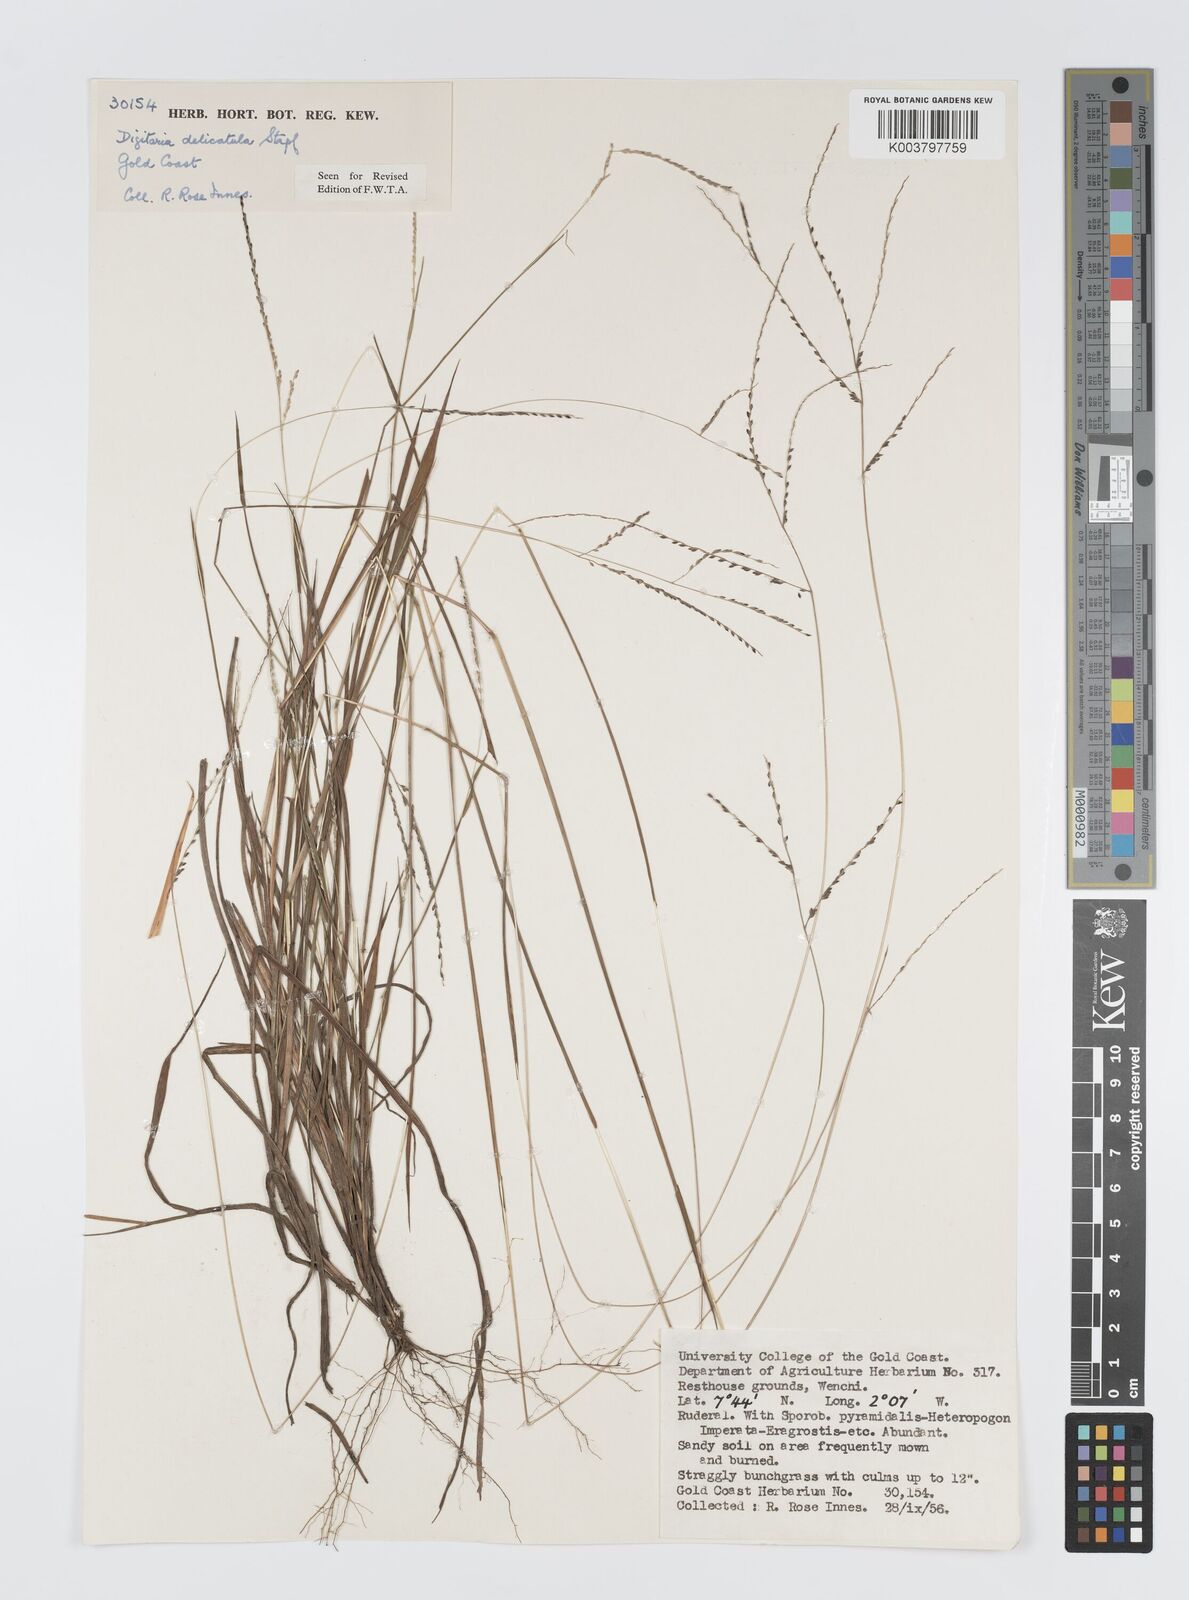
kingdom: Plantae
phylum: Tracheophyta
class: Liliopsida
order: Poales
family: Poaceae
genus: Digitaria
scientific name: Digitaria delicatula
